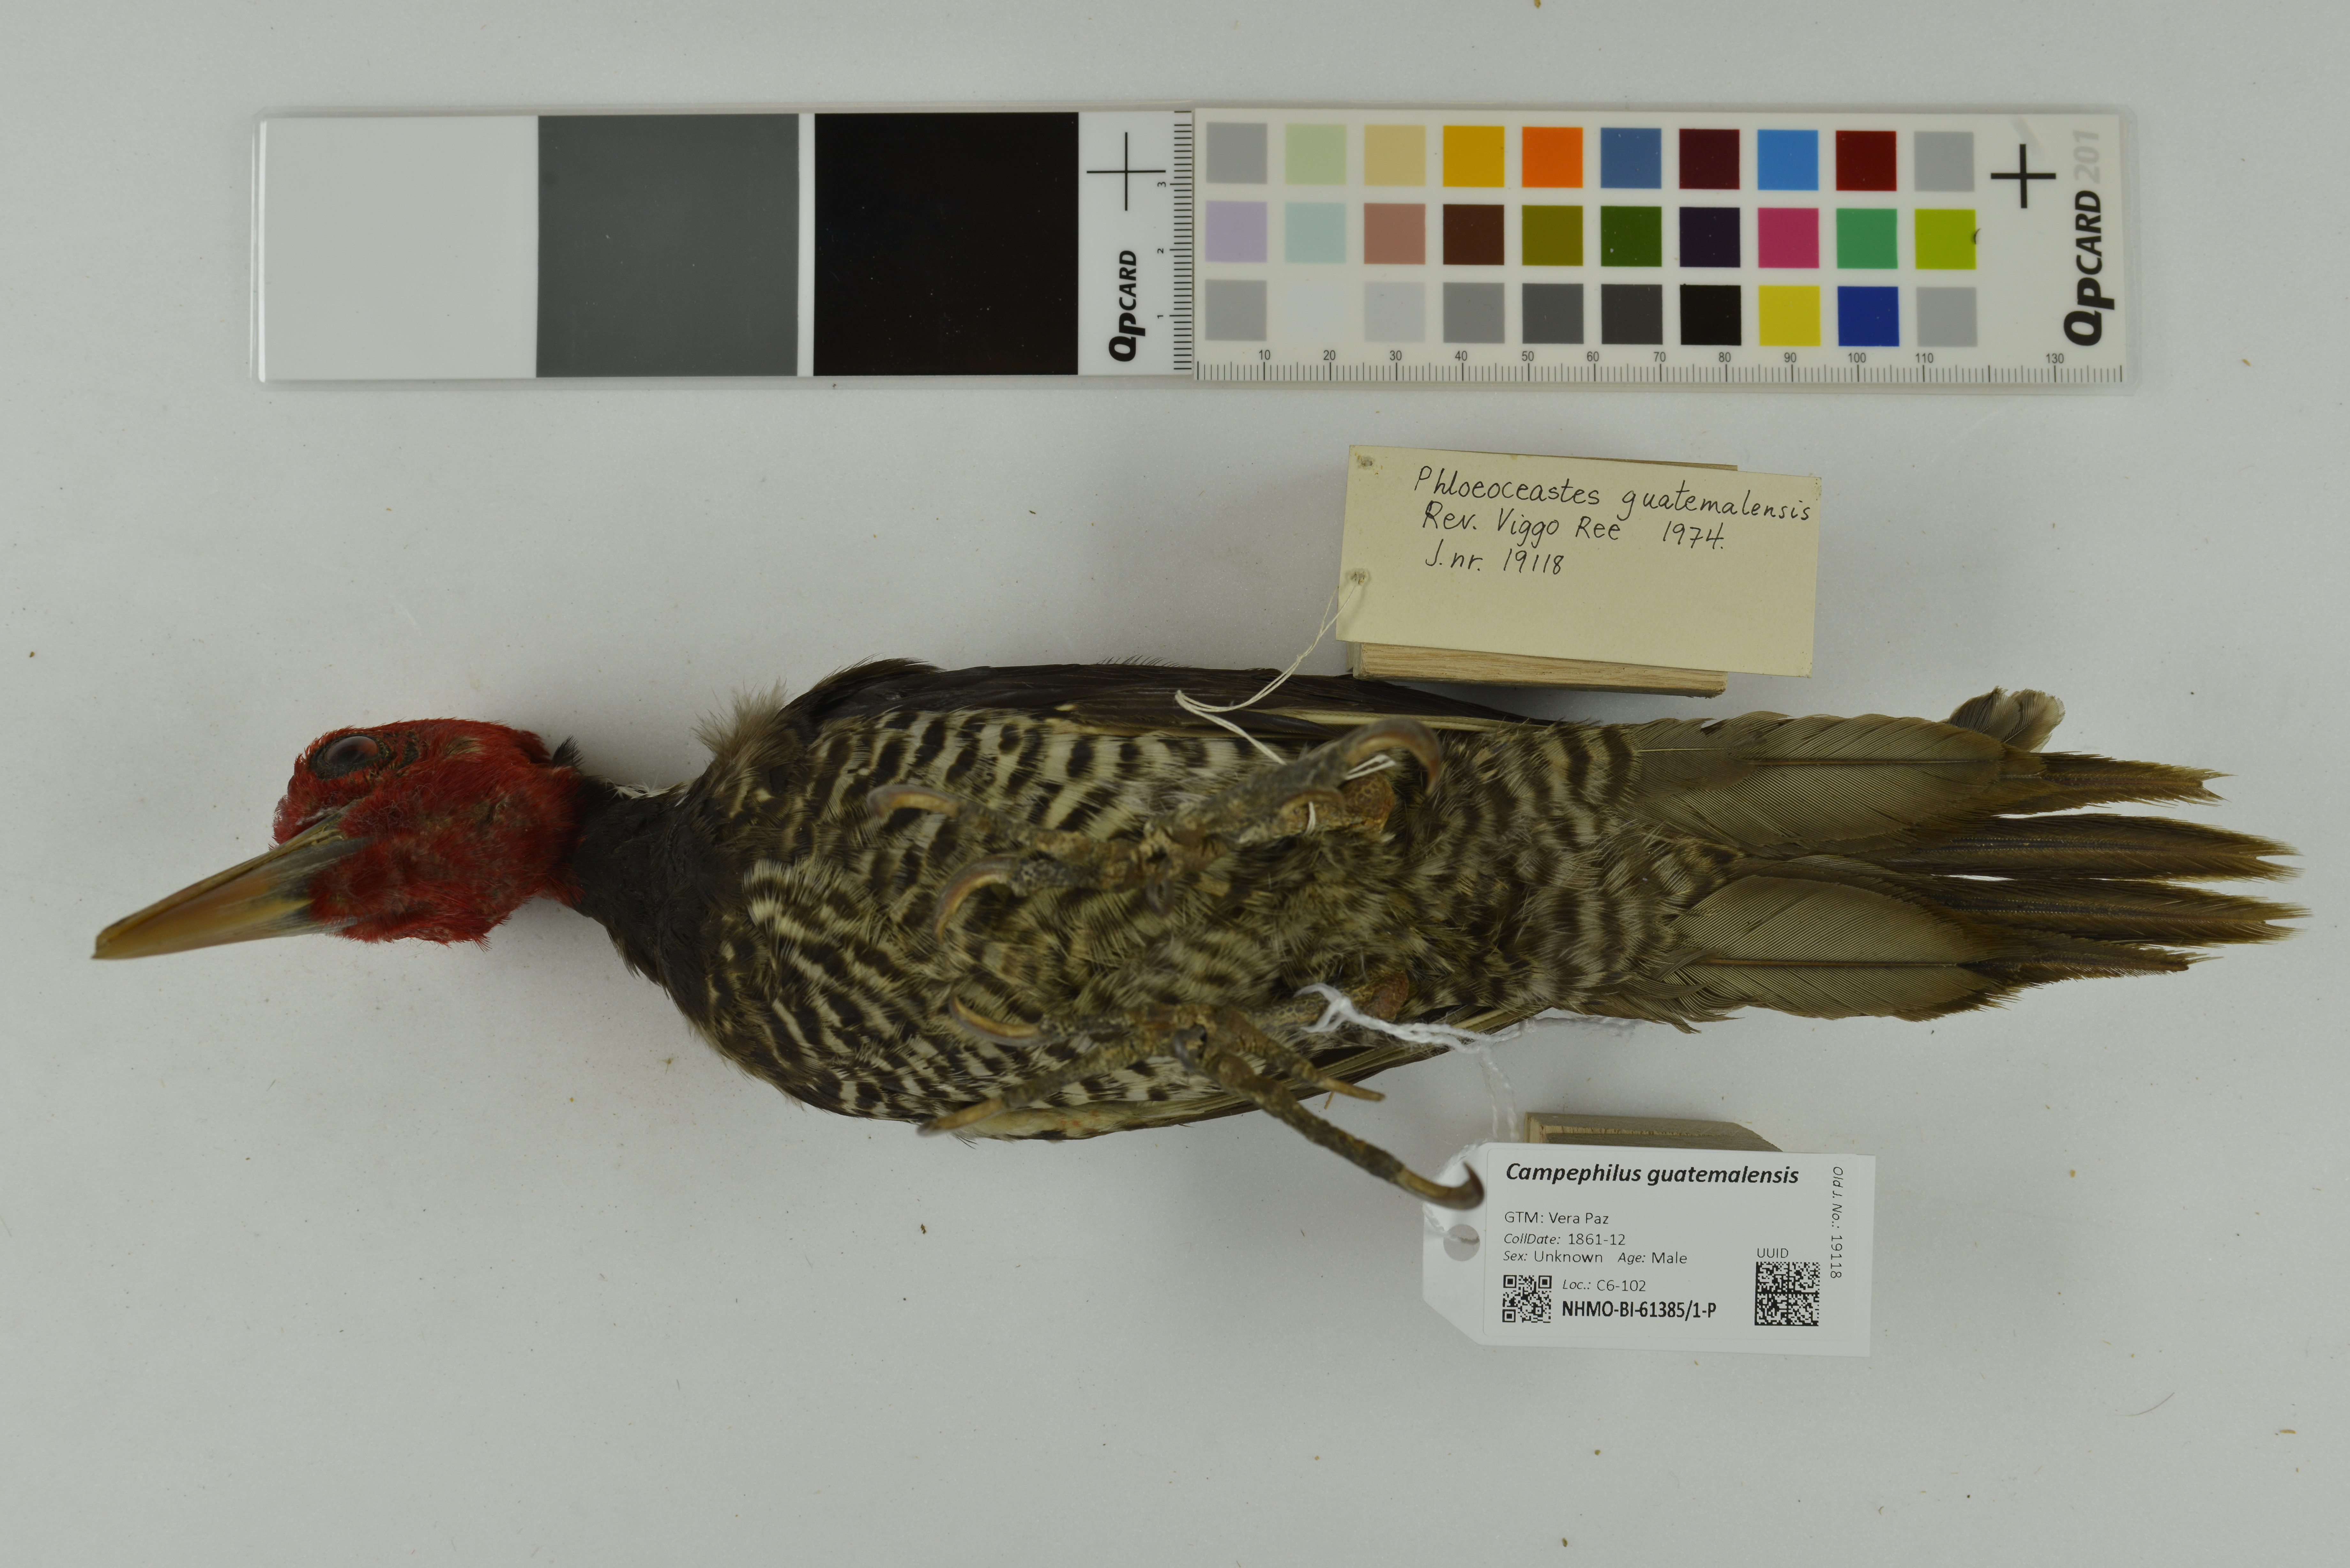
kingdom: Animalia
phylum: Chordata
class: Aves
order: Piciformes
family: Picidae
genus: Campephilus
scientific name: Campephilus guatemalensis
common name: Pale-billed woodpecker
